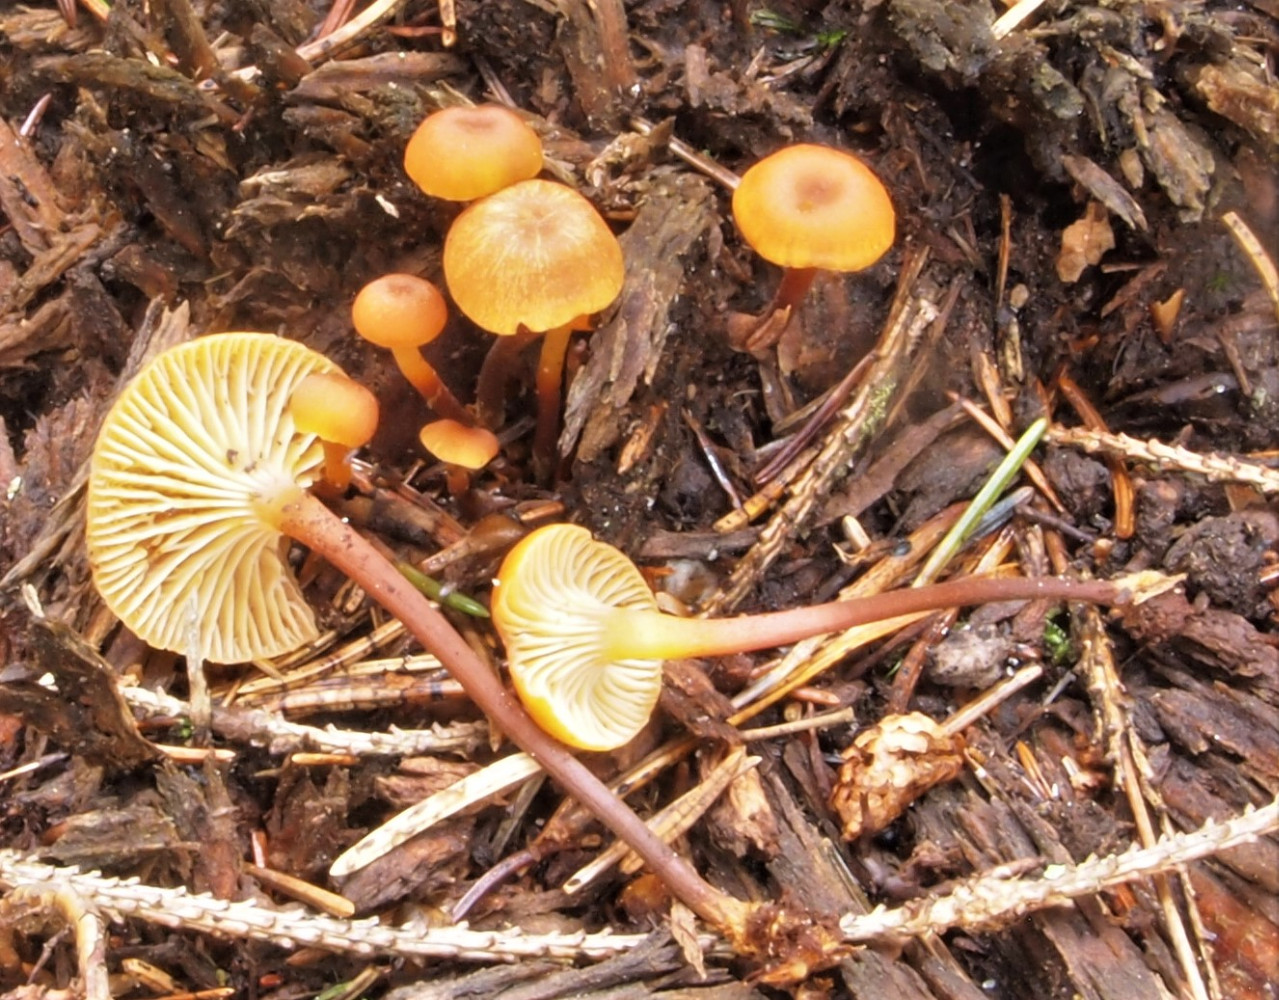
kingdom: Fungi
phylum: Basidiomycota
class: Agaricomycetes
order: Agaricales
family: Mycenaceae
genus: Xeromphalina
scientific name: Xeromphalina campanella
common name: klokke-tørhat
